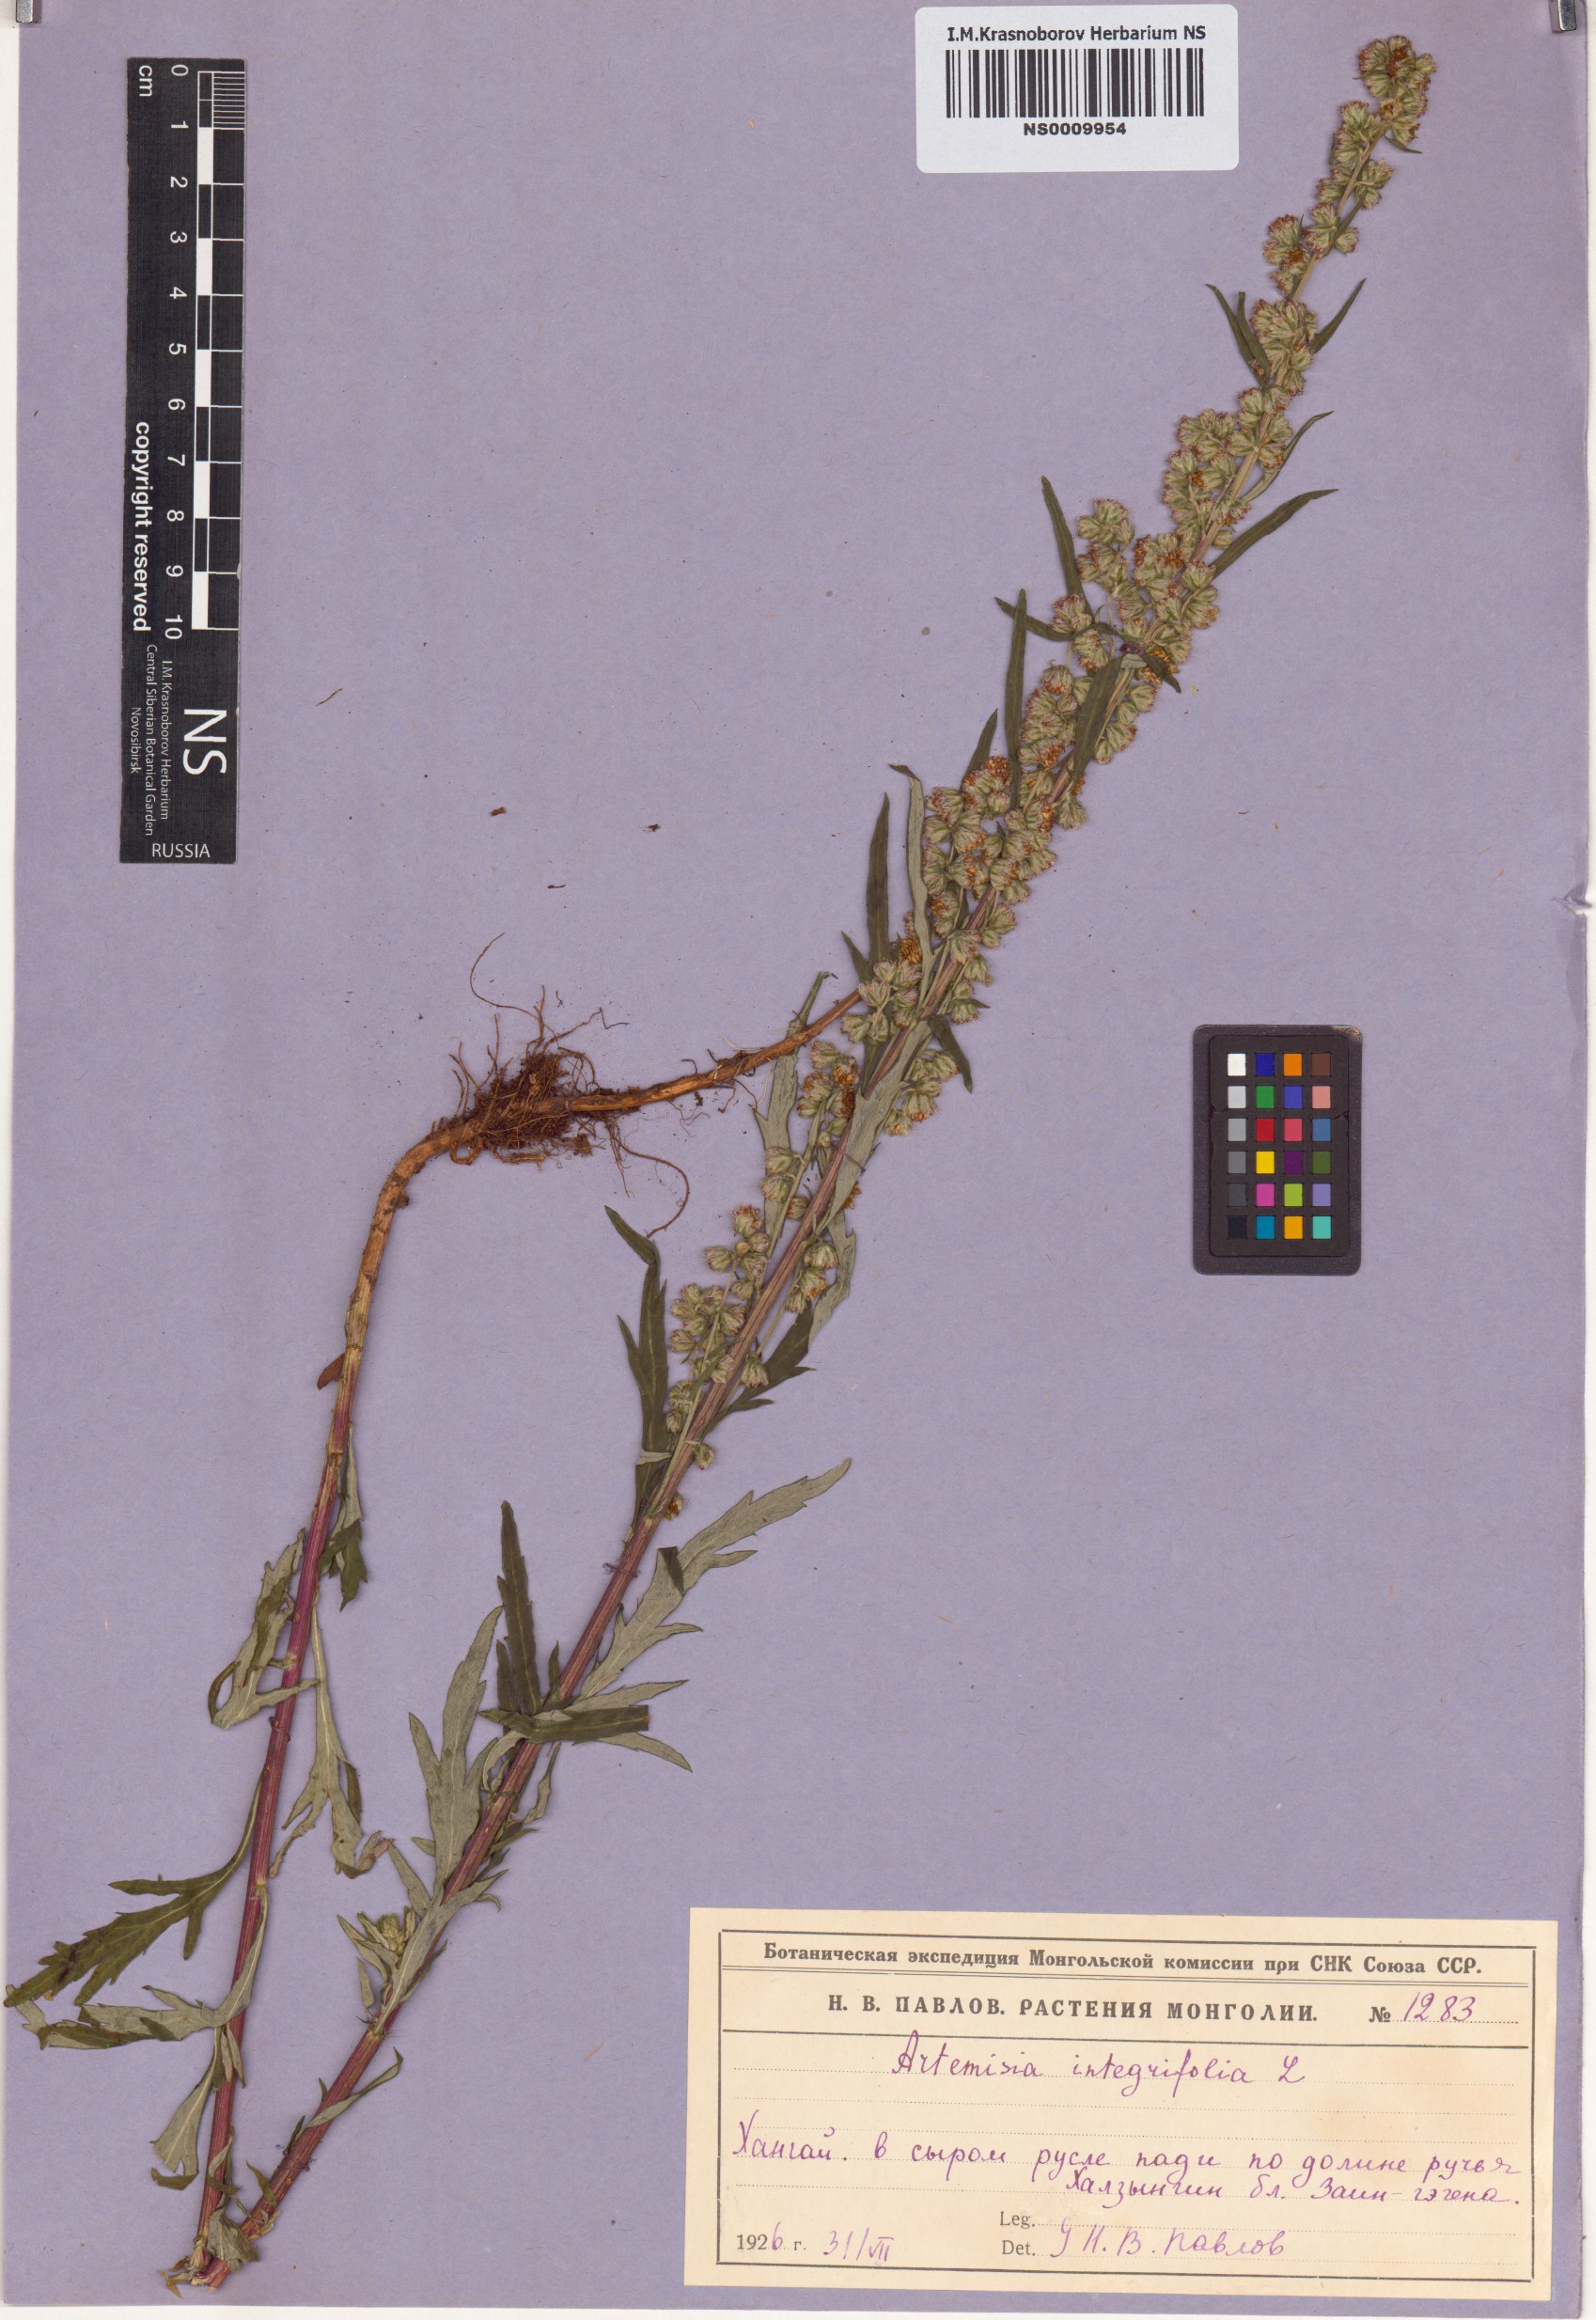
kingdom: Plantae
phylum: Tracheophyta
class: Magnoliopsida
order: Asterales
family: Asteraceae
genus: Artemisia
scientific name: Artemisia integrifolia
